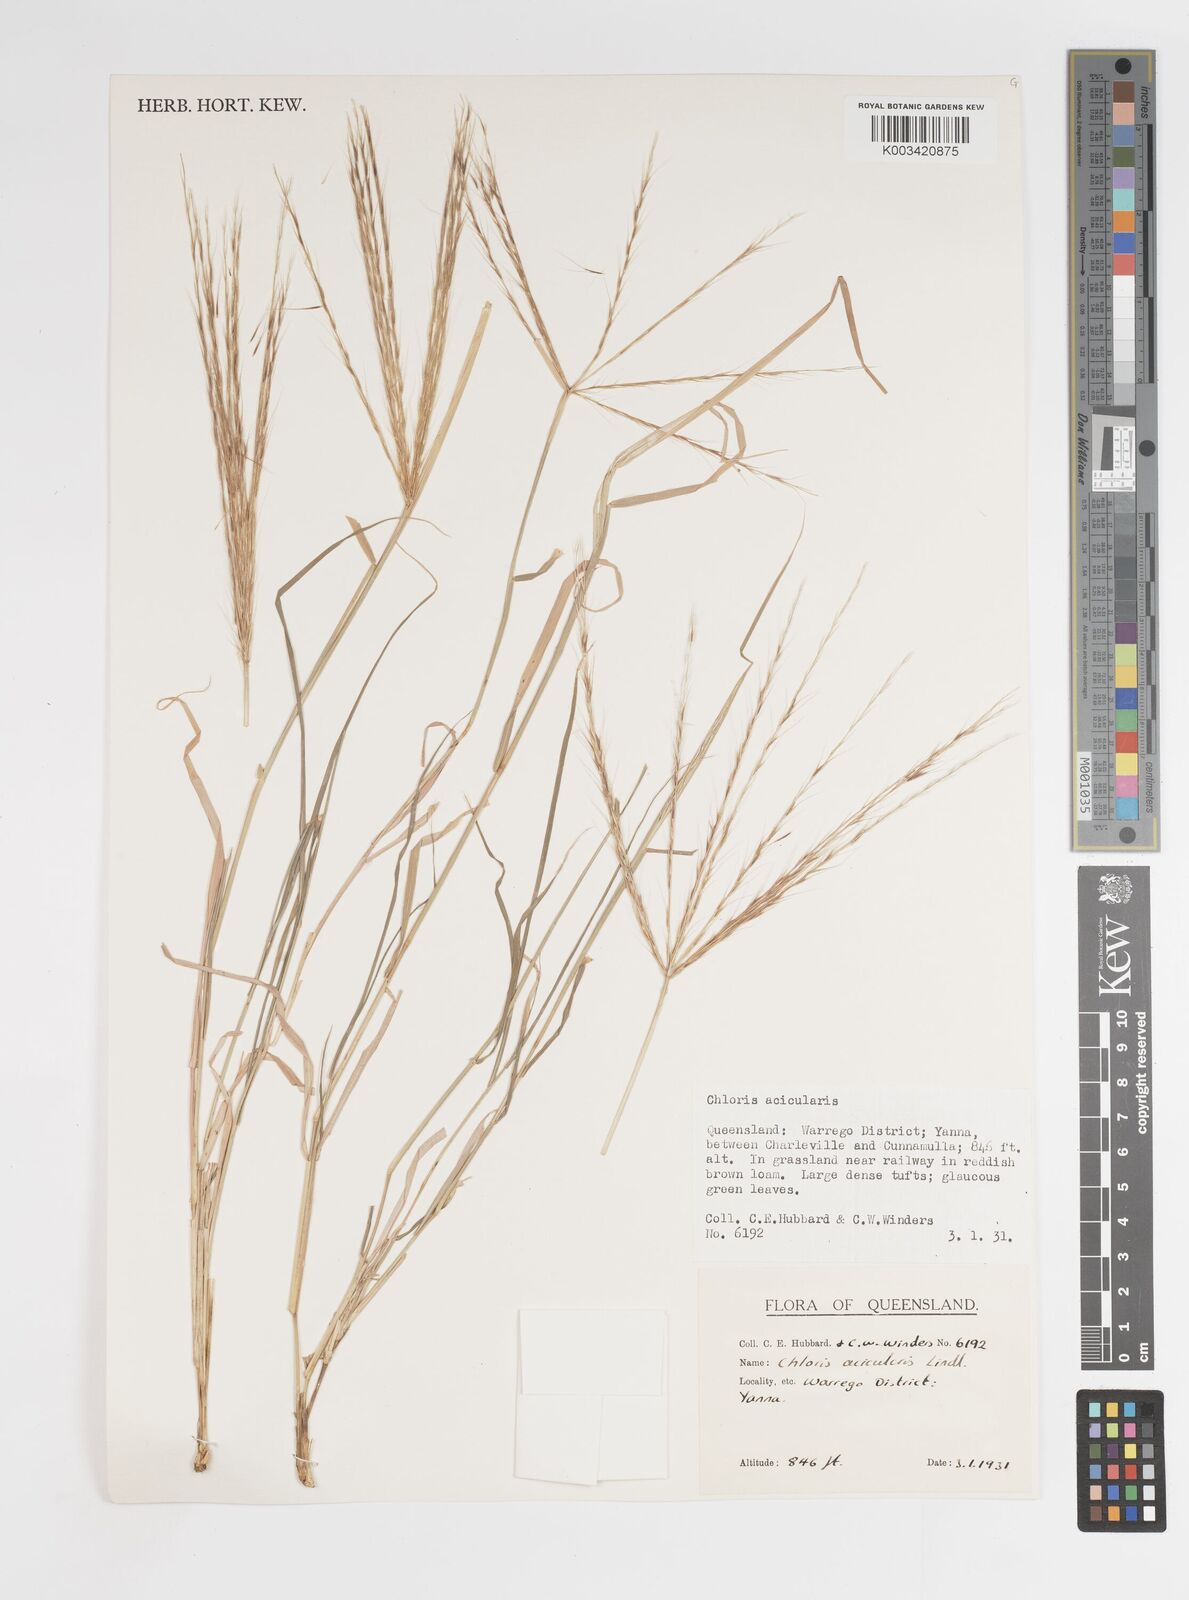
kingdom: Plantae
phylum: Tracheophyta
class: Liliopsida
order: Poales
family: Poaceae
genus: Enteropogon
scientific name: Enteropogon acicularis
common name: Curly windmill grass
